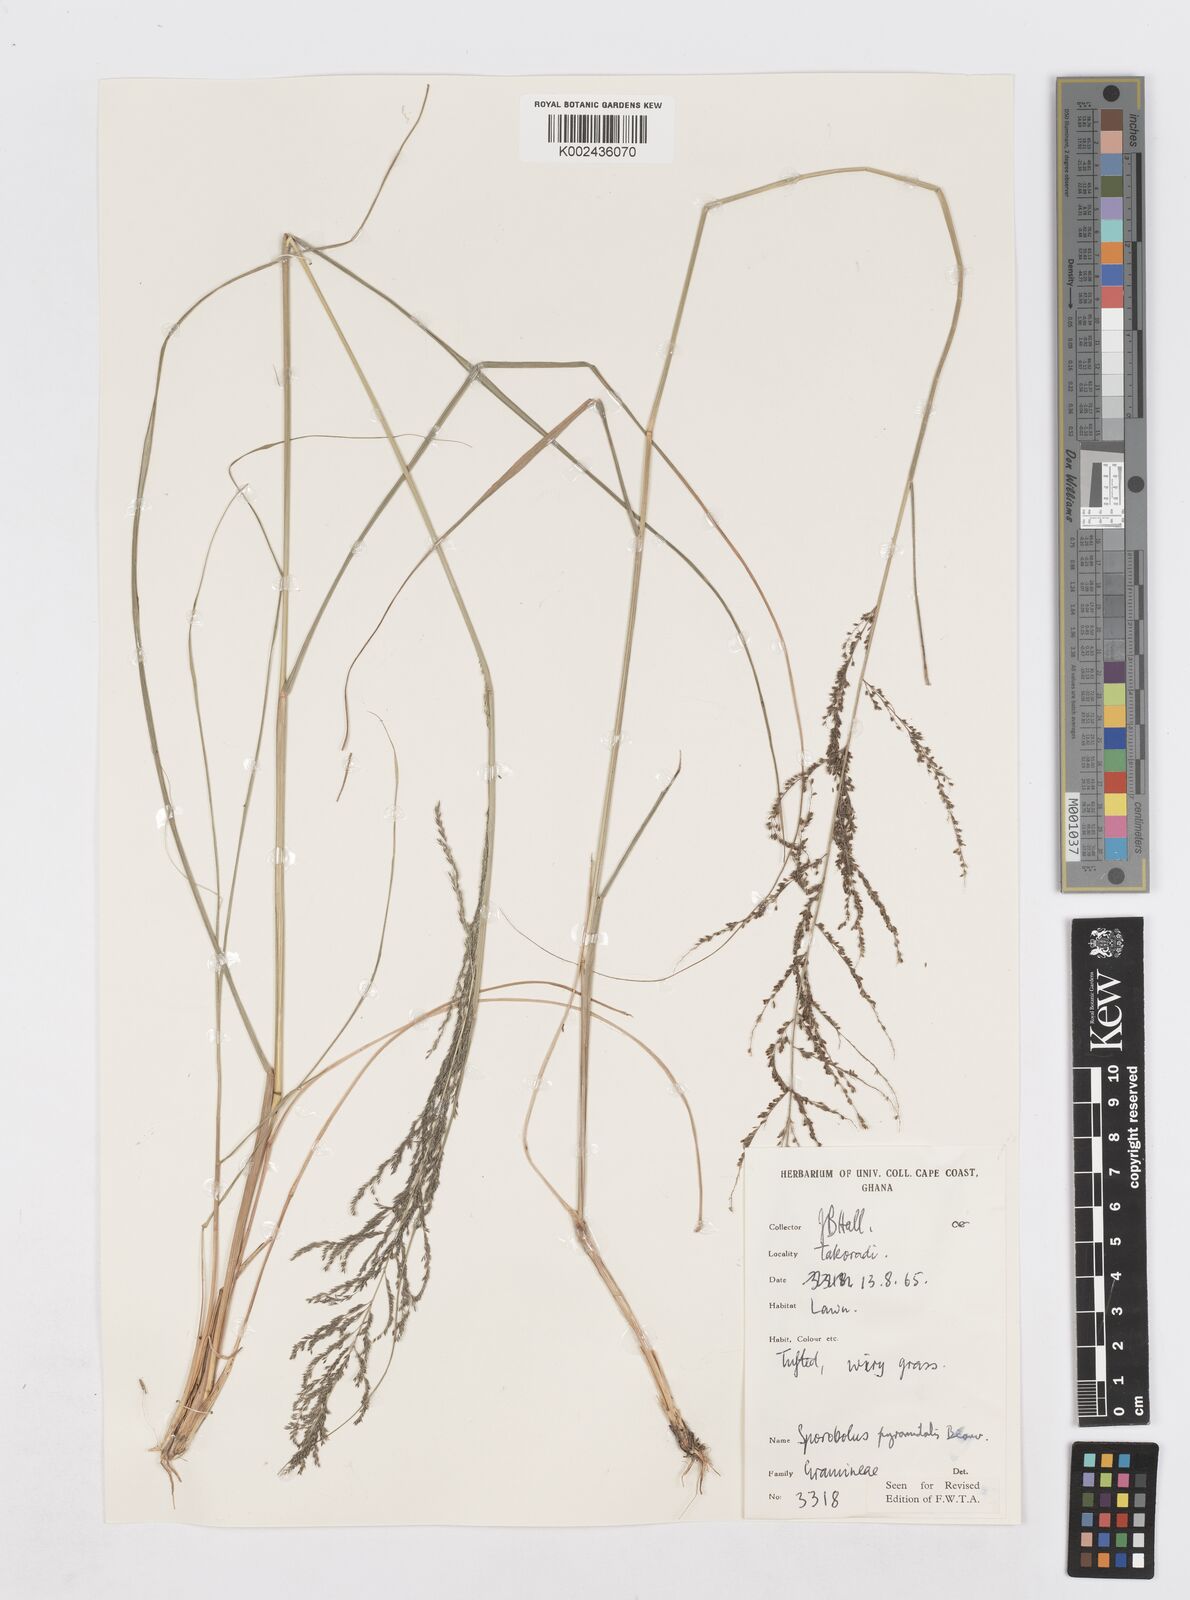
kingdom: Plantae
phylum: Tracheophyta
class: Liliopsida
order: Poales
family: Poaceae
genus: Sporobolus
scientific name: Sporobolus pyramidalis
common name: West indian dropseed
